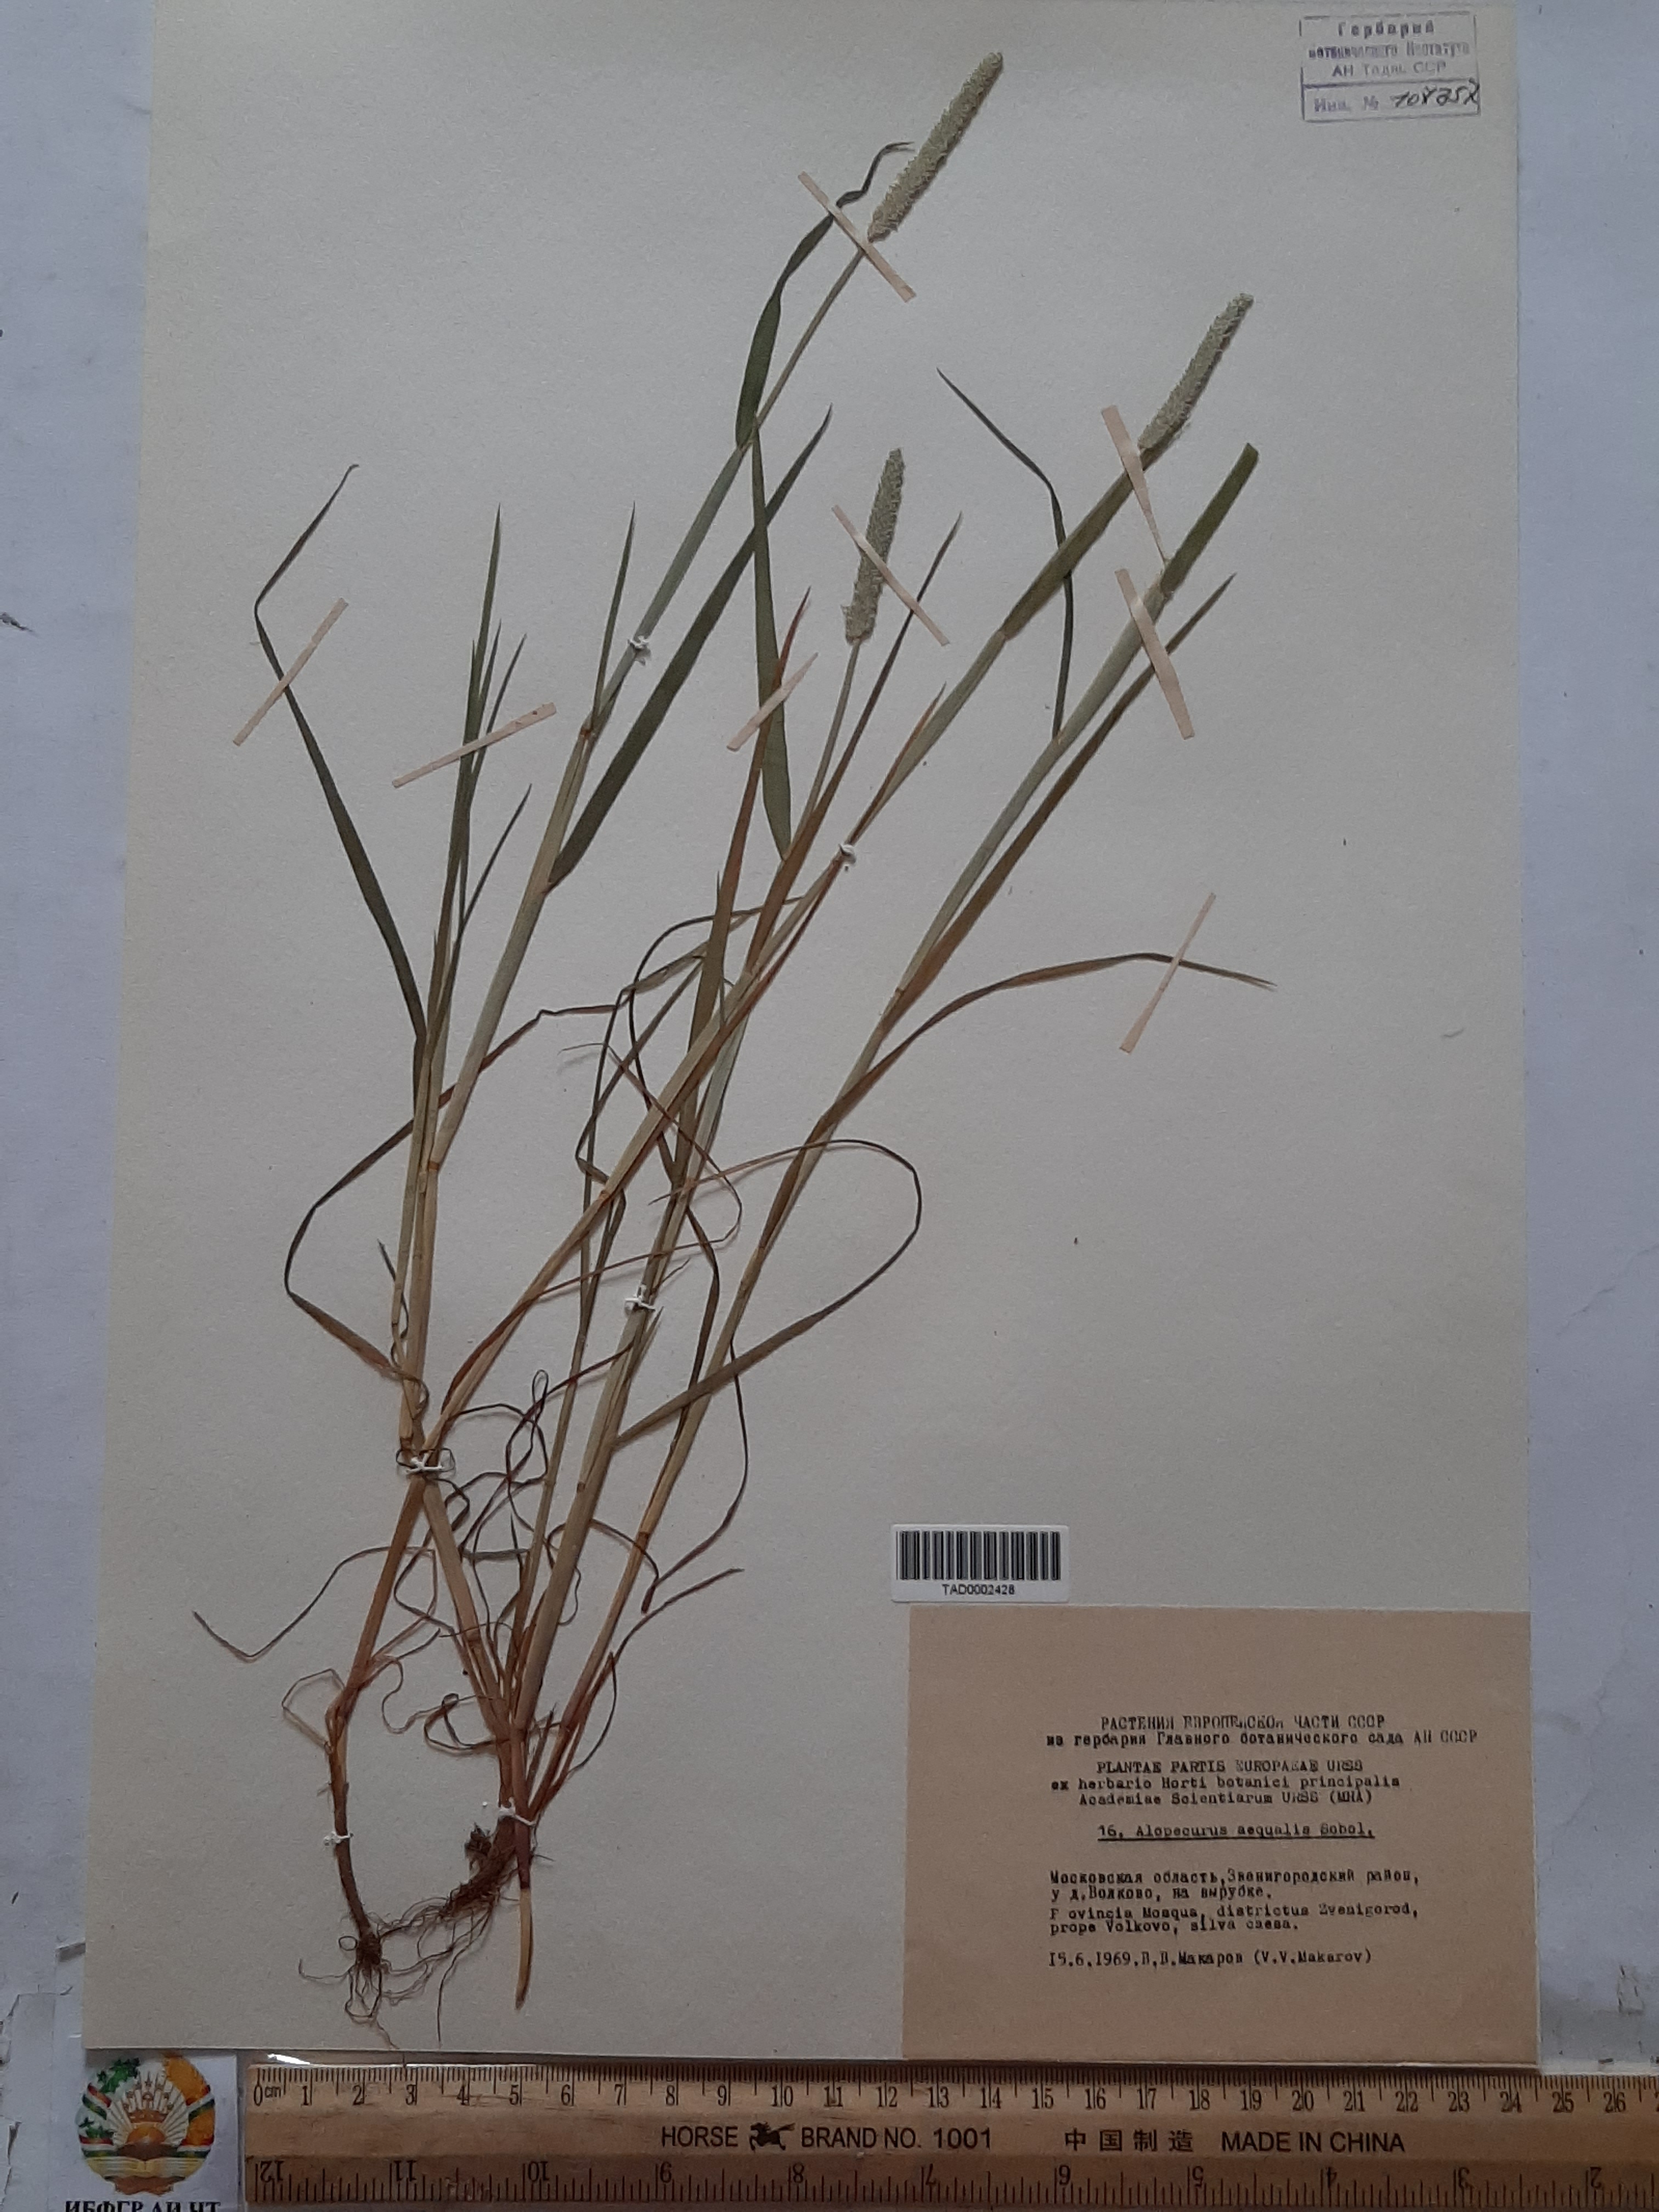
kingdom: Plantae
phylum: Tracheophyta
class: Liliopsida
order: Poales
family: Poaceae
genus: Alopecurus
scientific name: Alopecurus aequalis
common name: Orange foxtail
